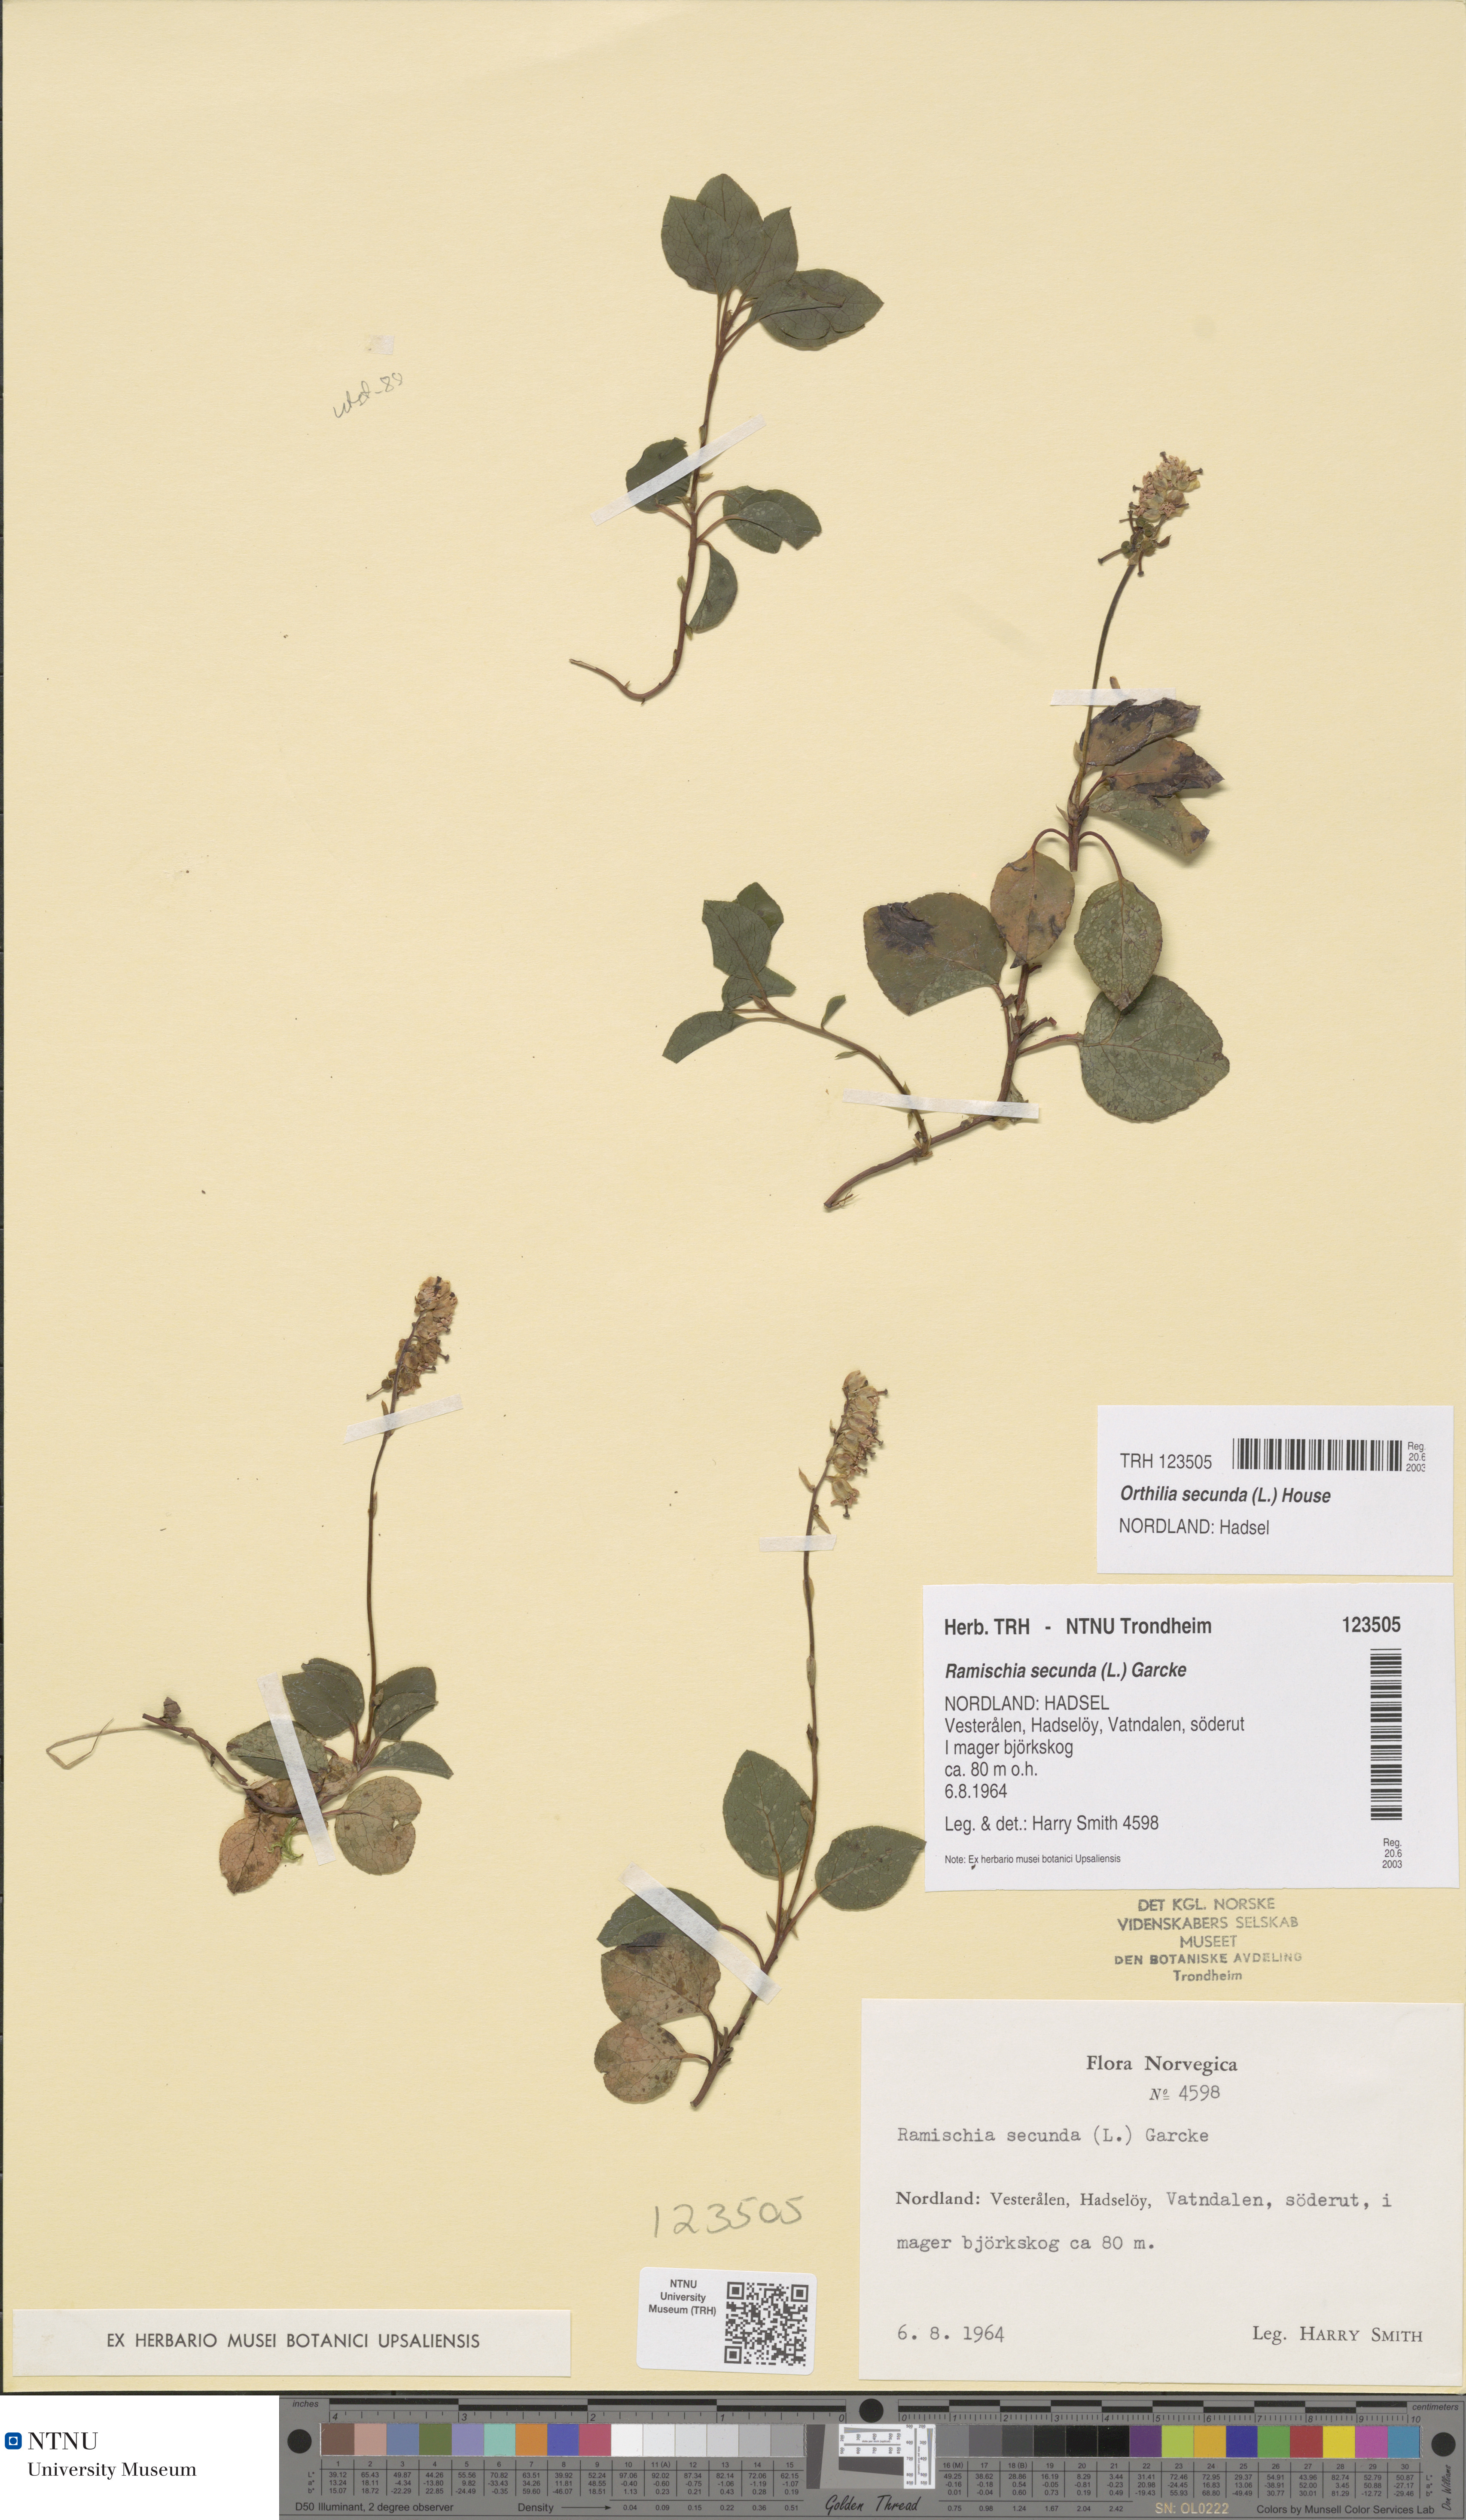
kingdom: Plantae
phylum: Tracheophyta
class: Magnoliopsida
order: Ericales
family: Ericaceae
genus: Orthilia
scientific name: Orthilia secunda
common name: One-sided orthilia
